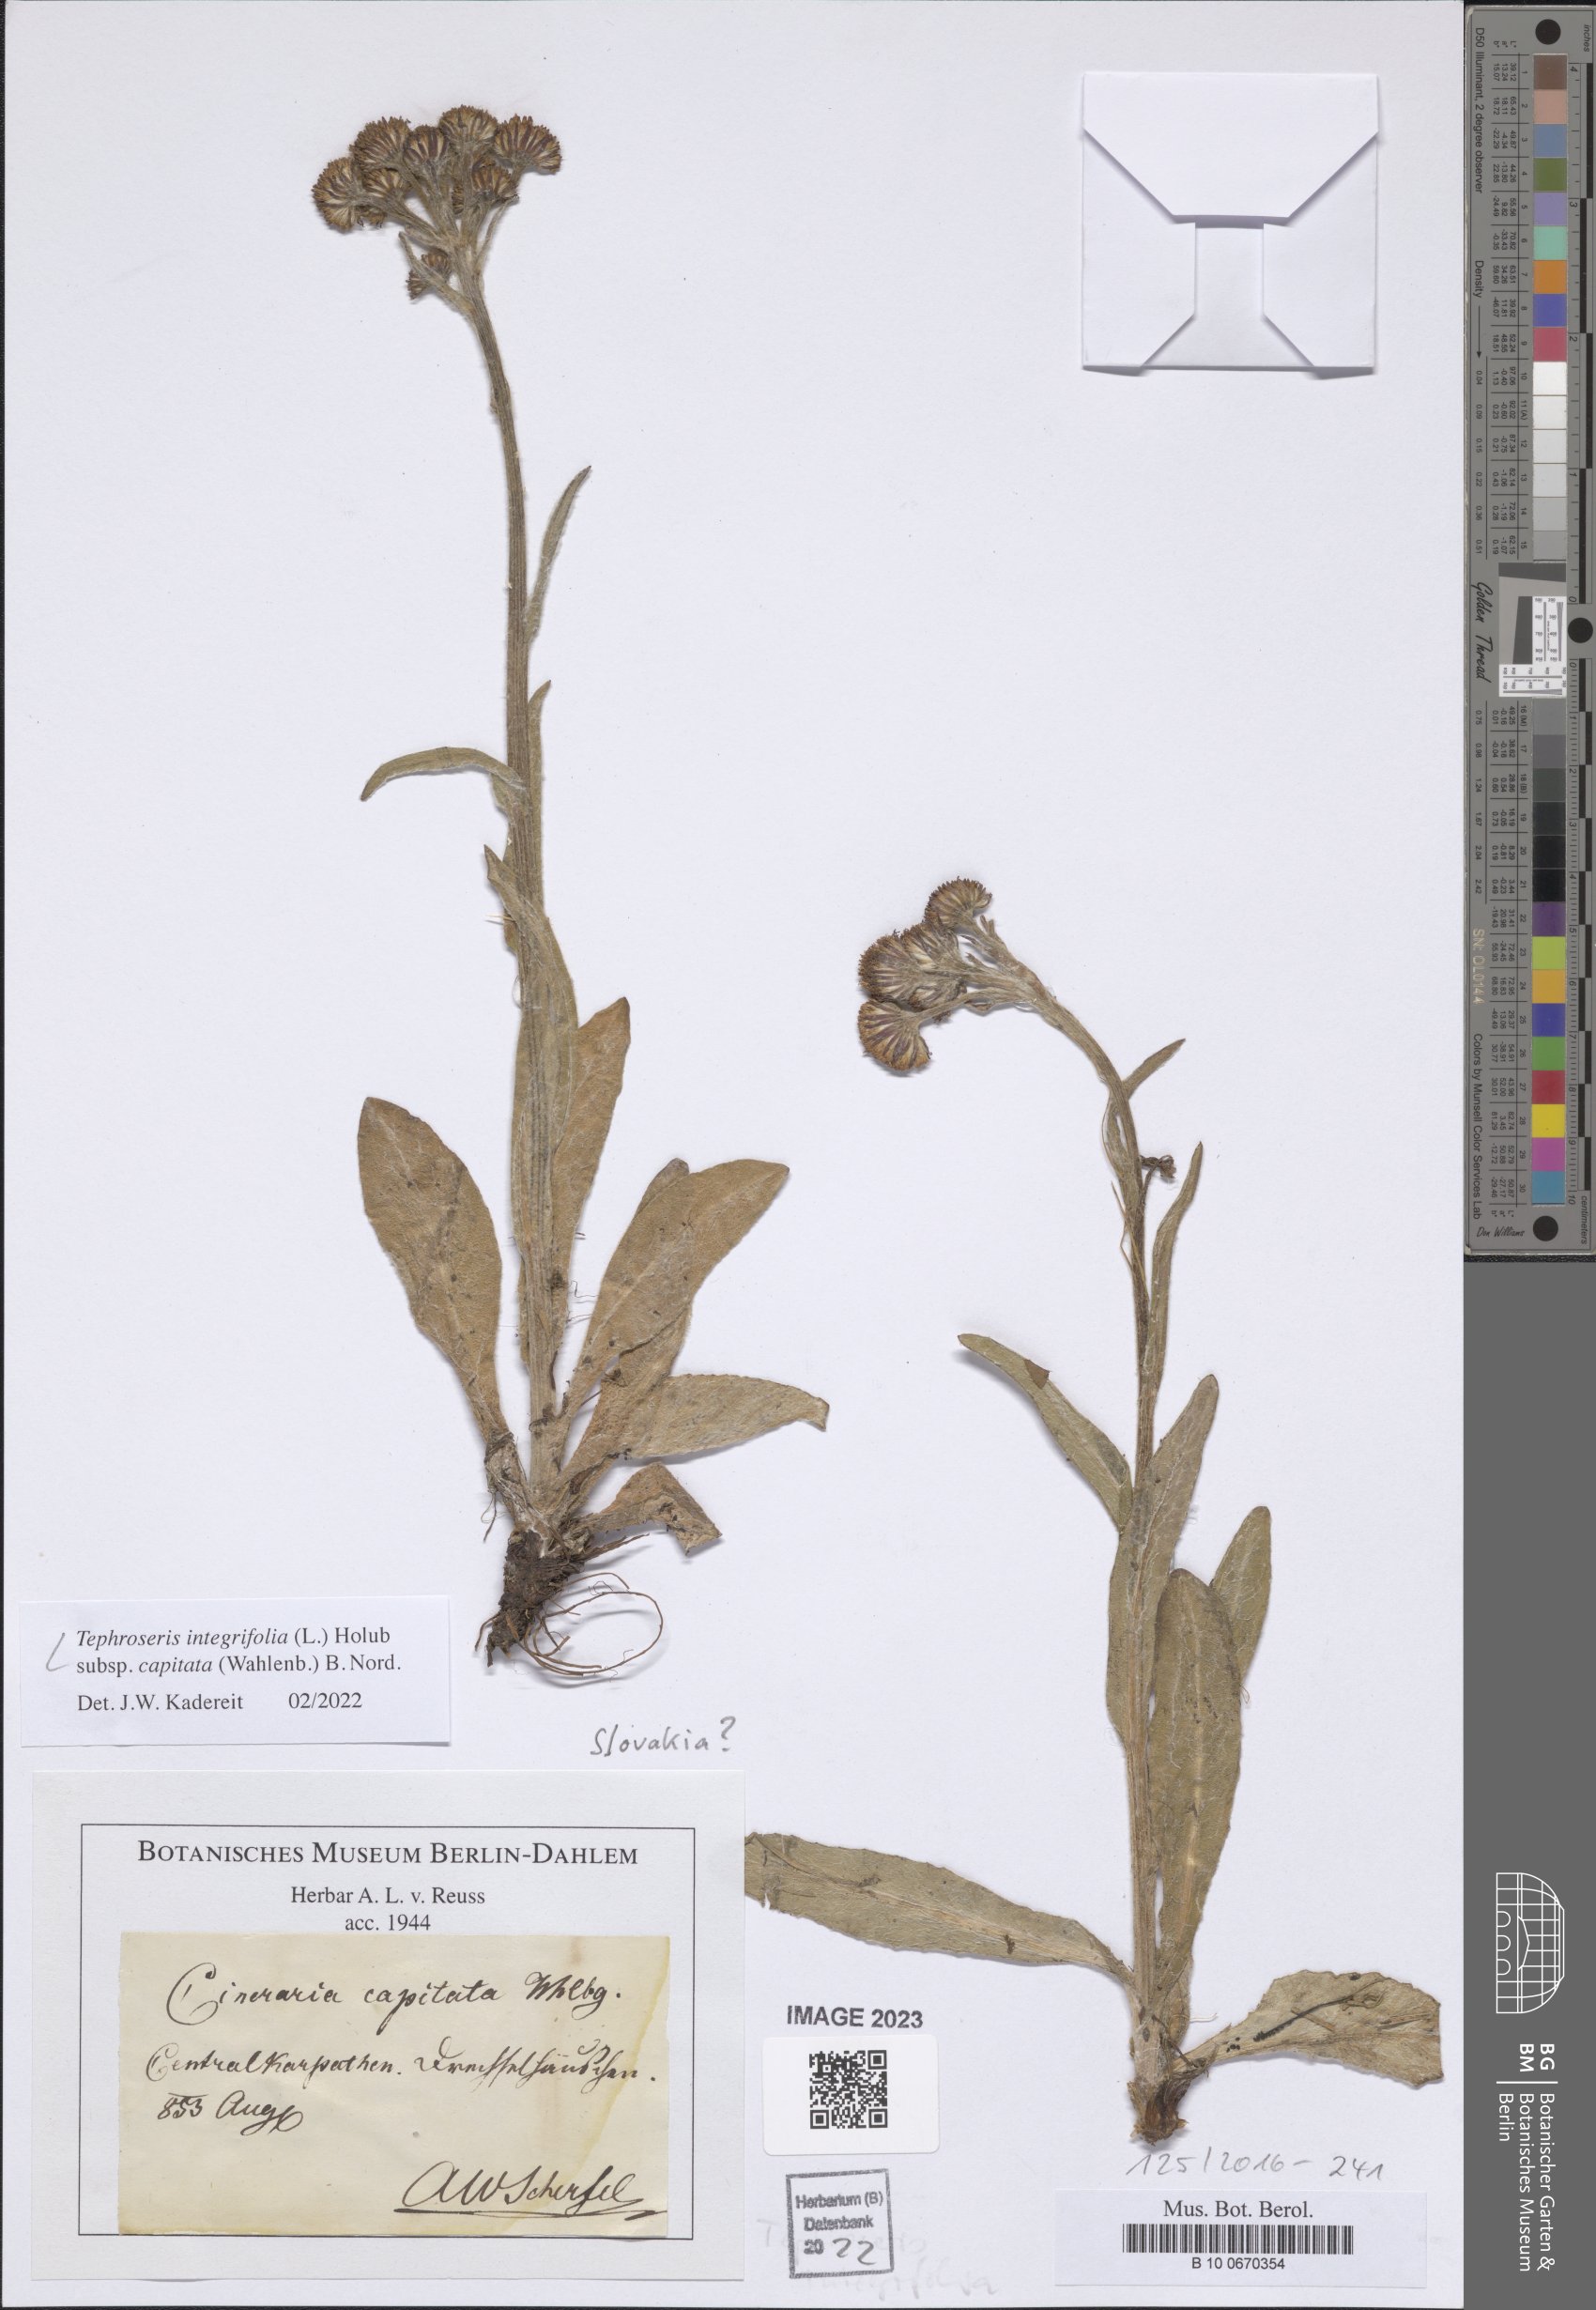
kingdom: Plantae
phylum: Tracheophyta
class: Magnoliopsida
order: Asterales
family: Asteraceae
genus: Tephroseris
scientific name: Tephroseris integrifolia
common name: Field fleawort
